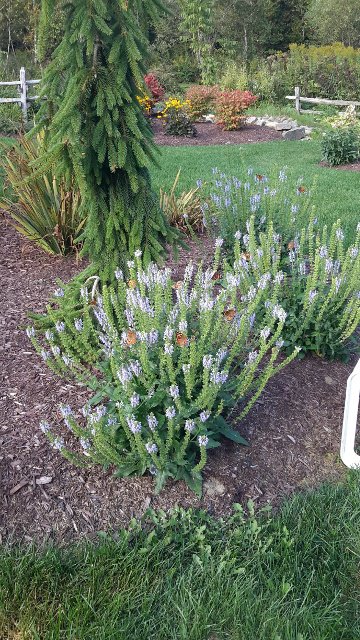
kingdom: Animalia
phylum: Arthropoda
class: Insecta
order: Lepidoptera
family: Nymphalidae
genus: Vanessa
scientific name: Vanessa cardui
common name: Painted Lady
